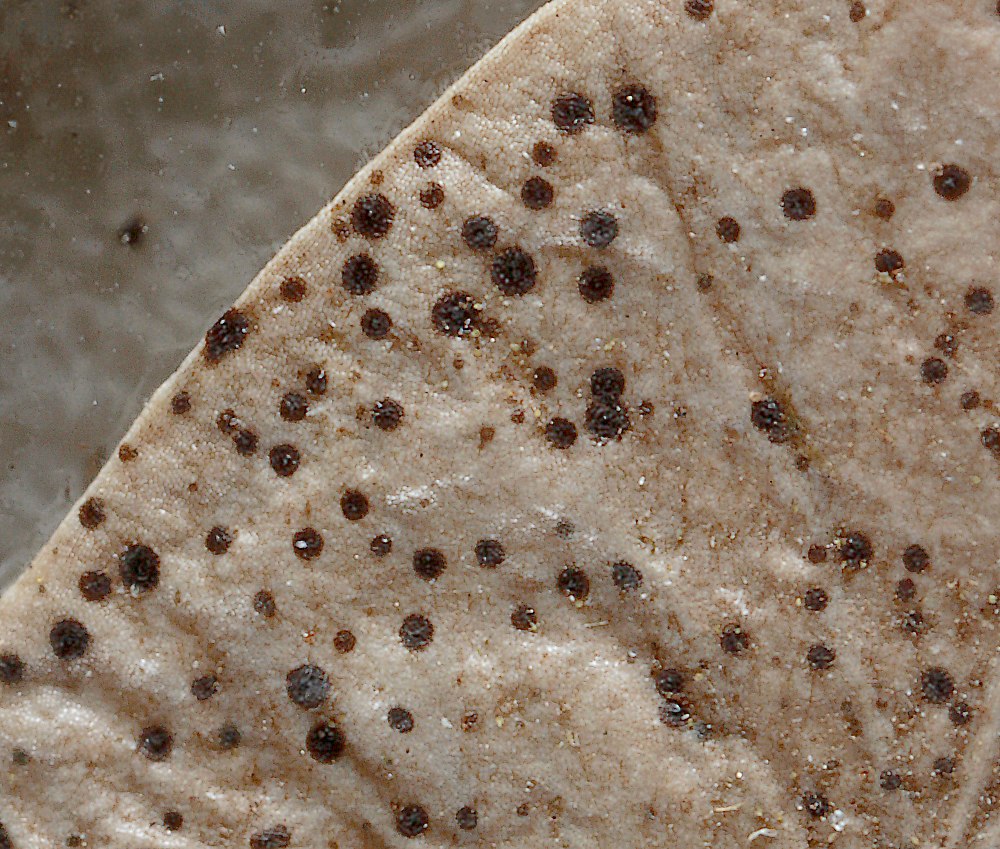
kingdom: Fungi
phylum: Ascomycota
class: Dothideomycetes
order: Microthyriales
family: Microthyriaceae
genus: Microthyrium
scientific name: Microthyrium macrosporum
